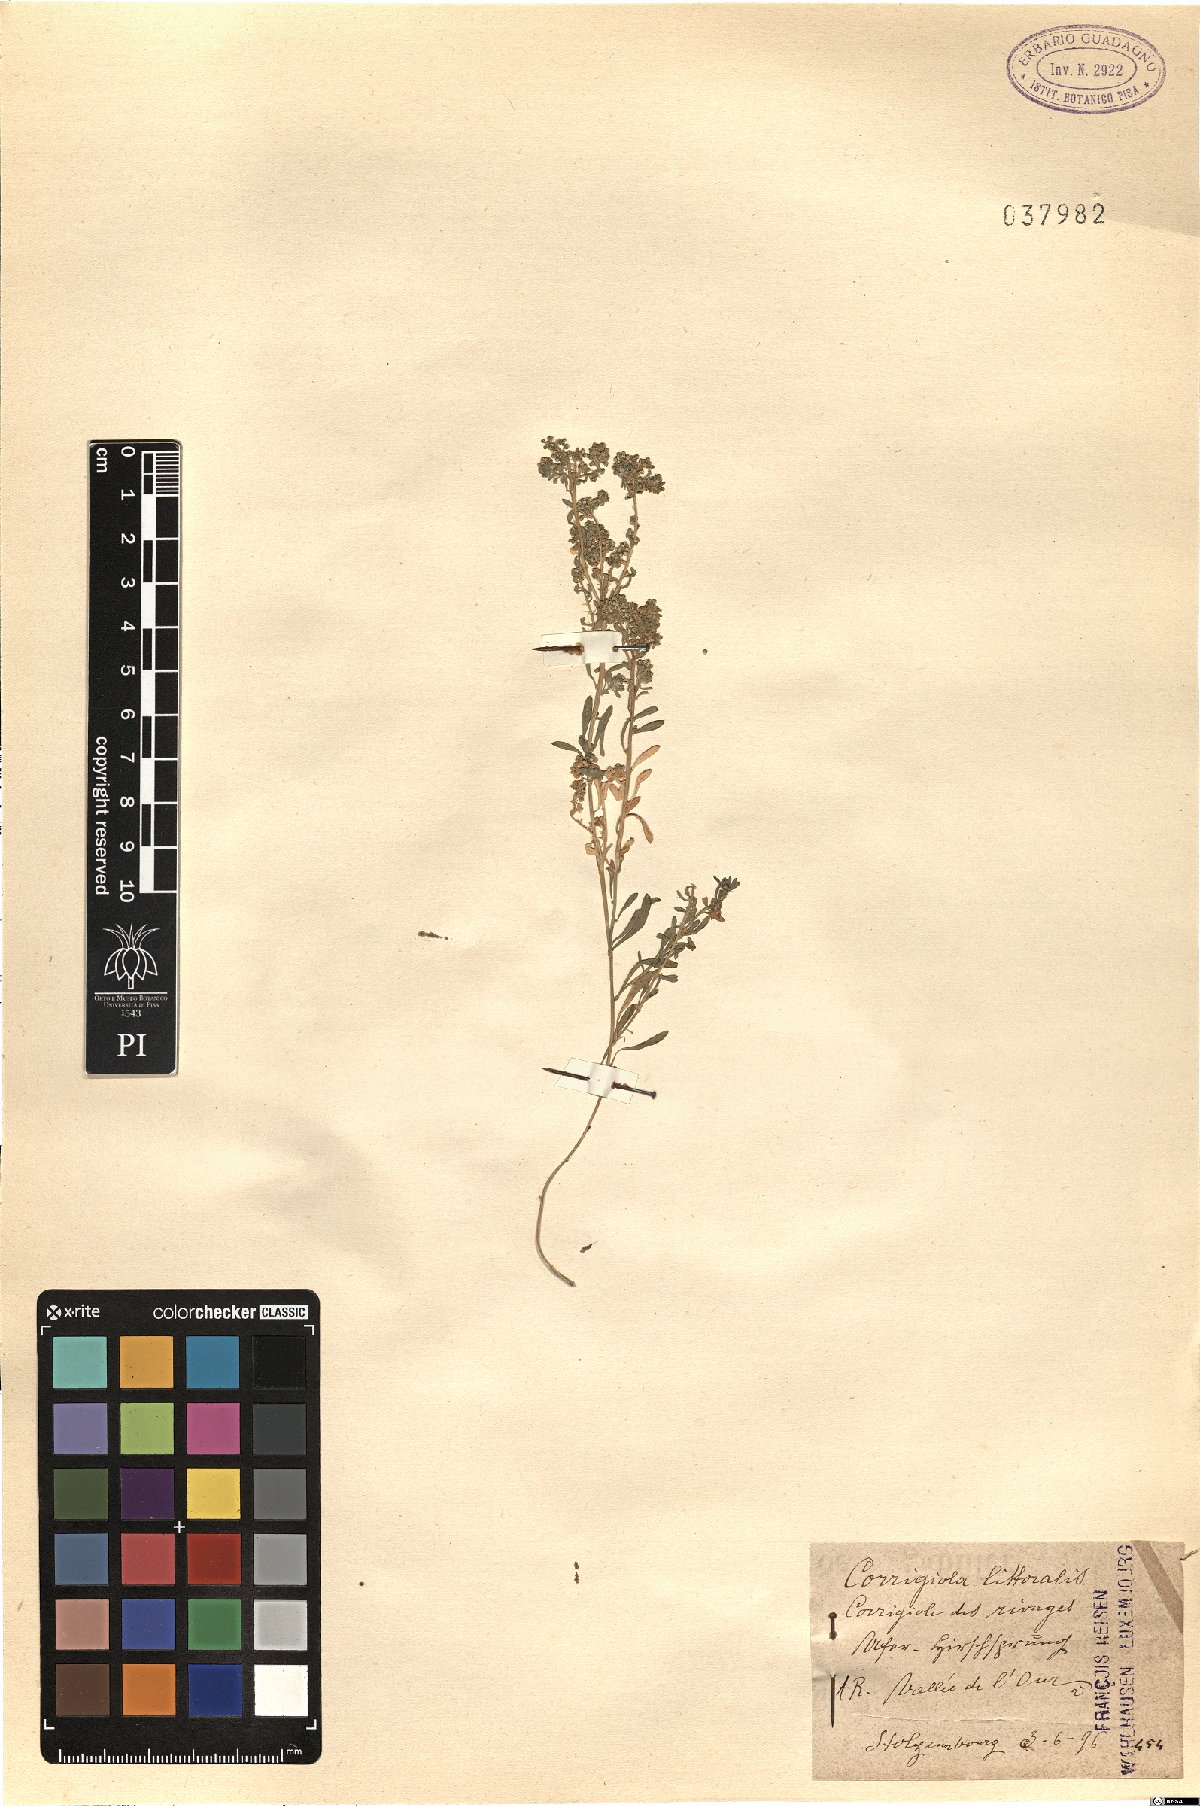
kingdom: Plantae
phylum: Tracheophyta
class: Magnoliopsida
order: Caryophyllales
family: Caryophyllaceae
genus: Corrigiola
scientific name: Corrigiola litoralis
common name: Strapwort
